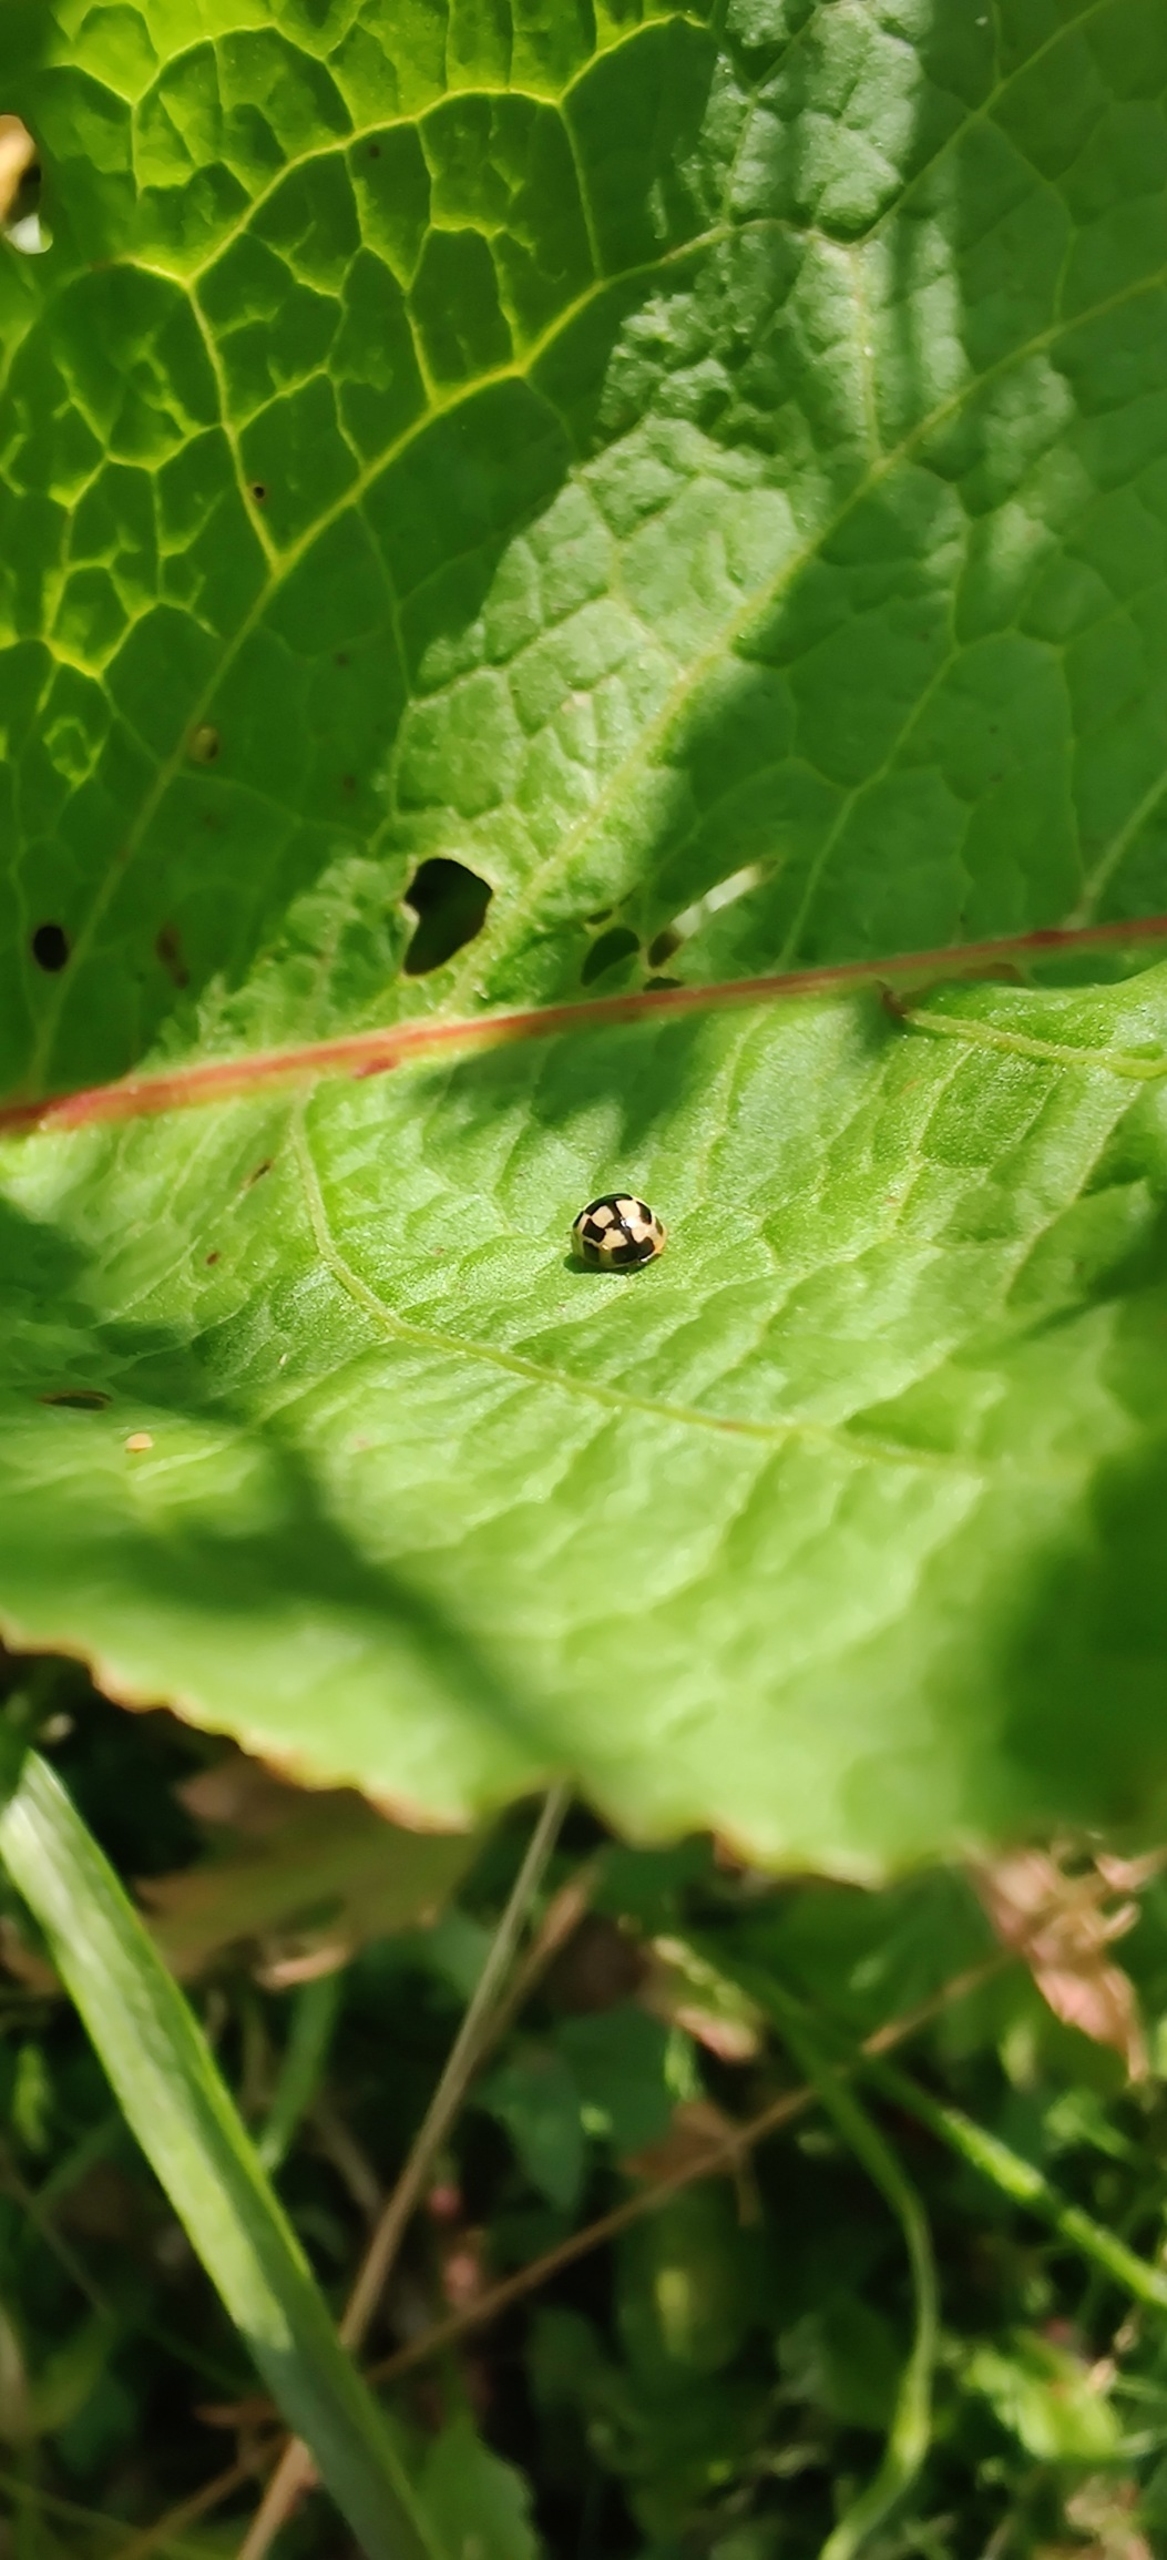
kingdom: Animalia
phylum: Arthropoda
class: Insecta
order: Coleoptera
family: Coccinellidae
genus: Propylaea
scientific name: Propylaea quatuordecimpunctata
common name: Skakbræt
